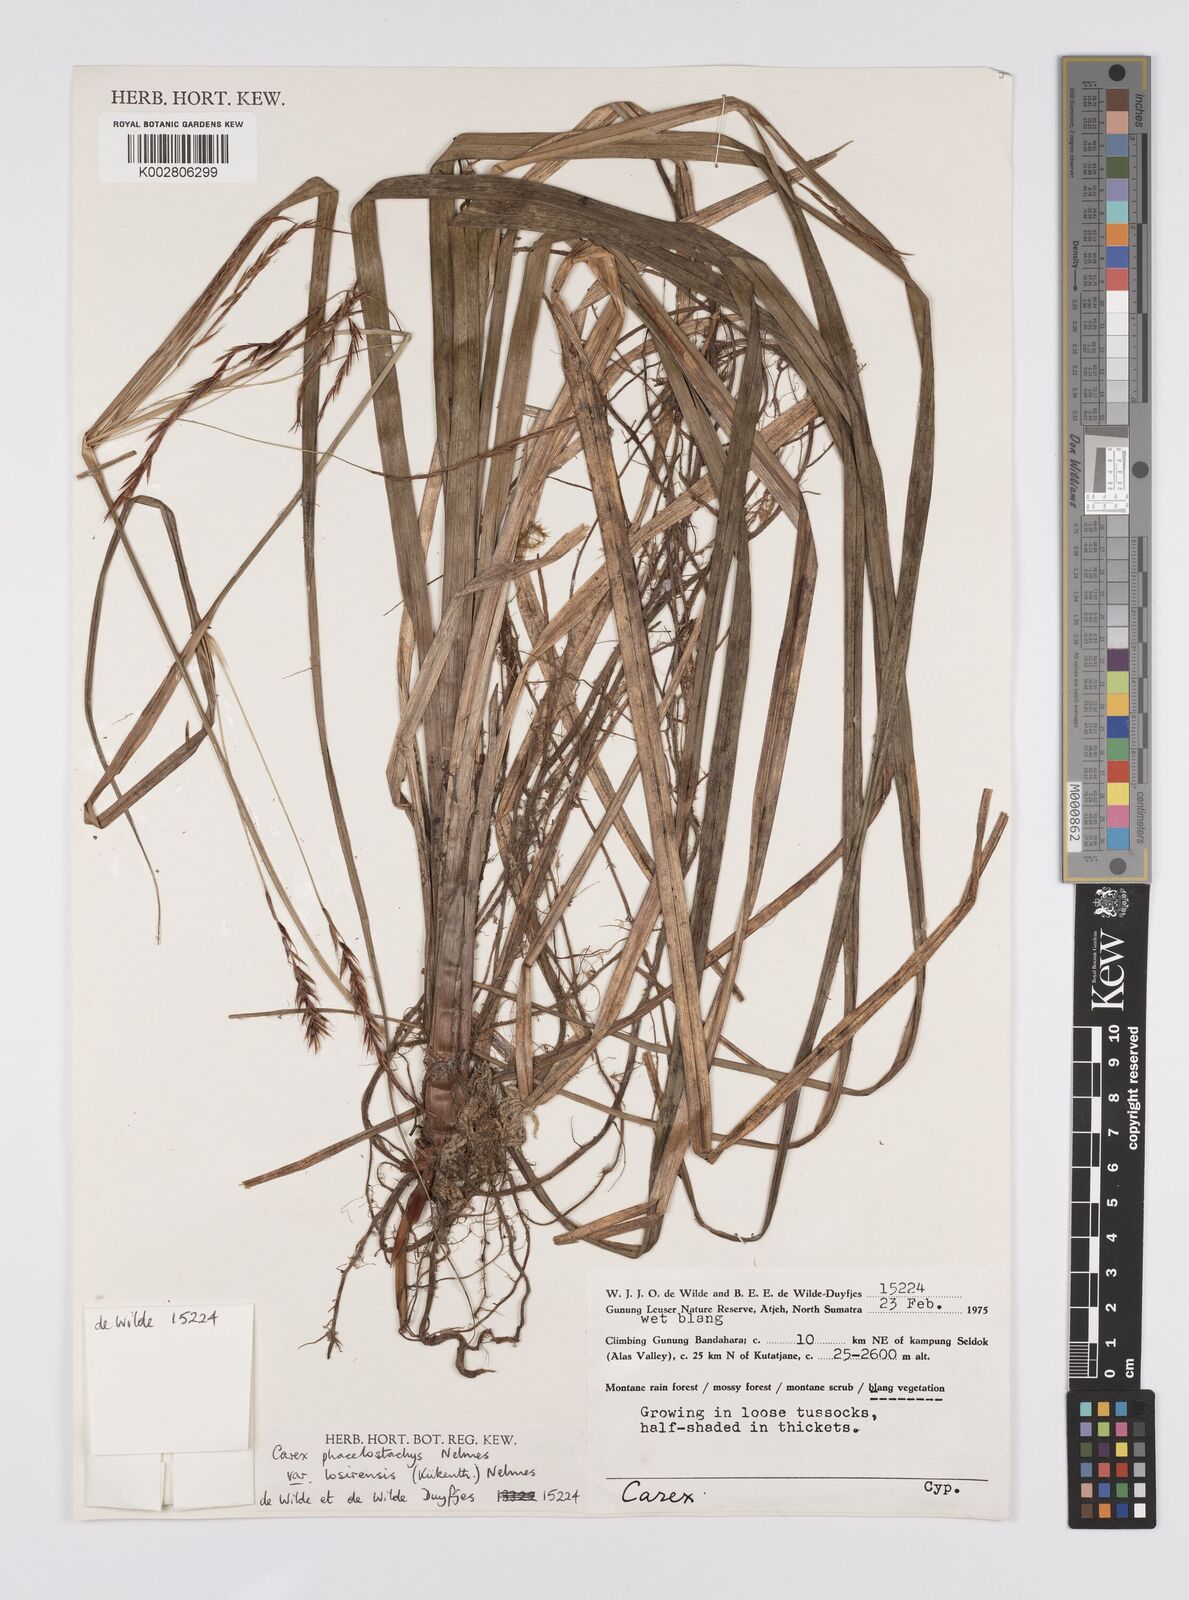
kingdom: Plantae
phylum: Tracheophyta
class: Liliopsida
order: Poales
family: Cyperaceae
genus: Carex
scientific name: Carex verticillata
